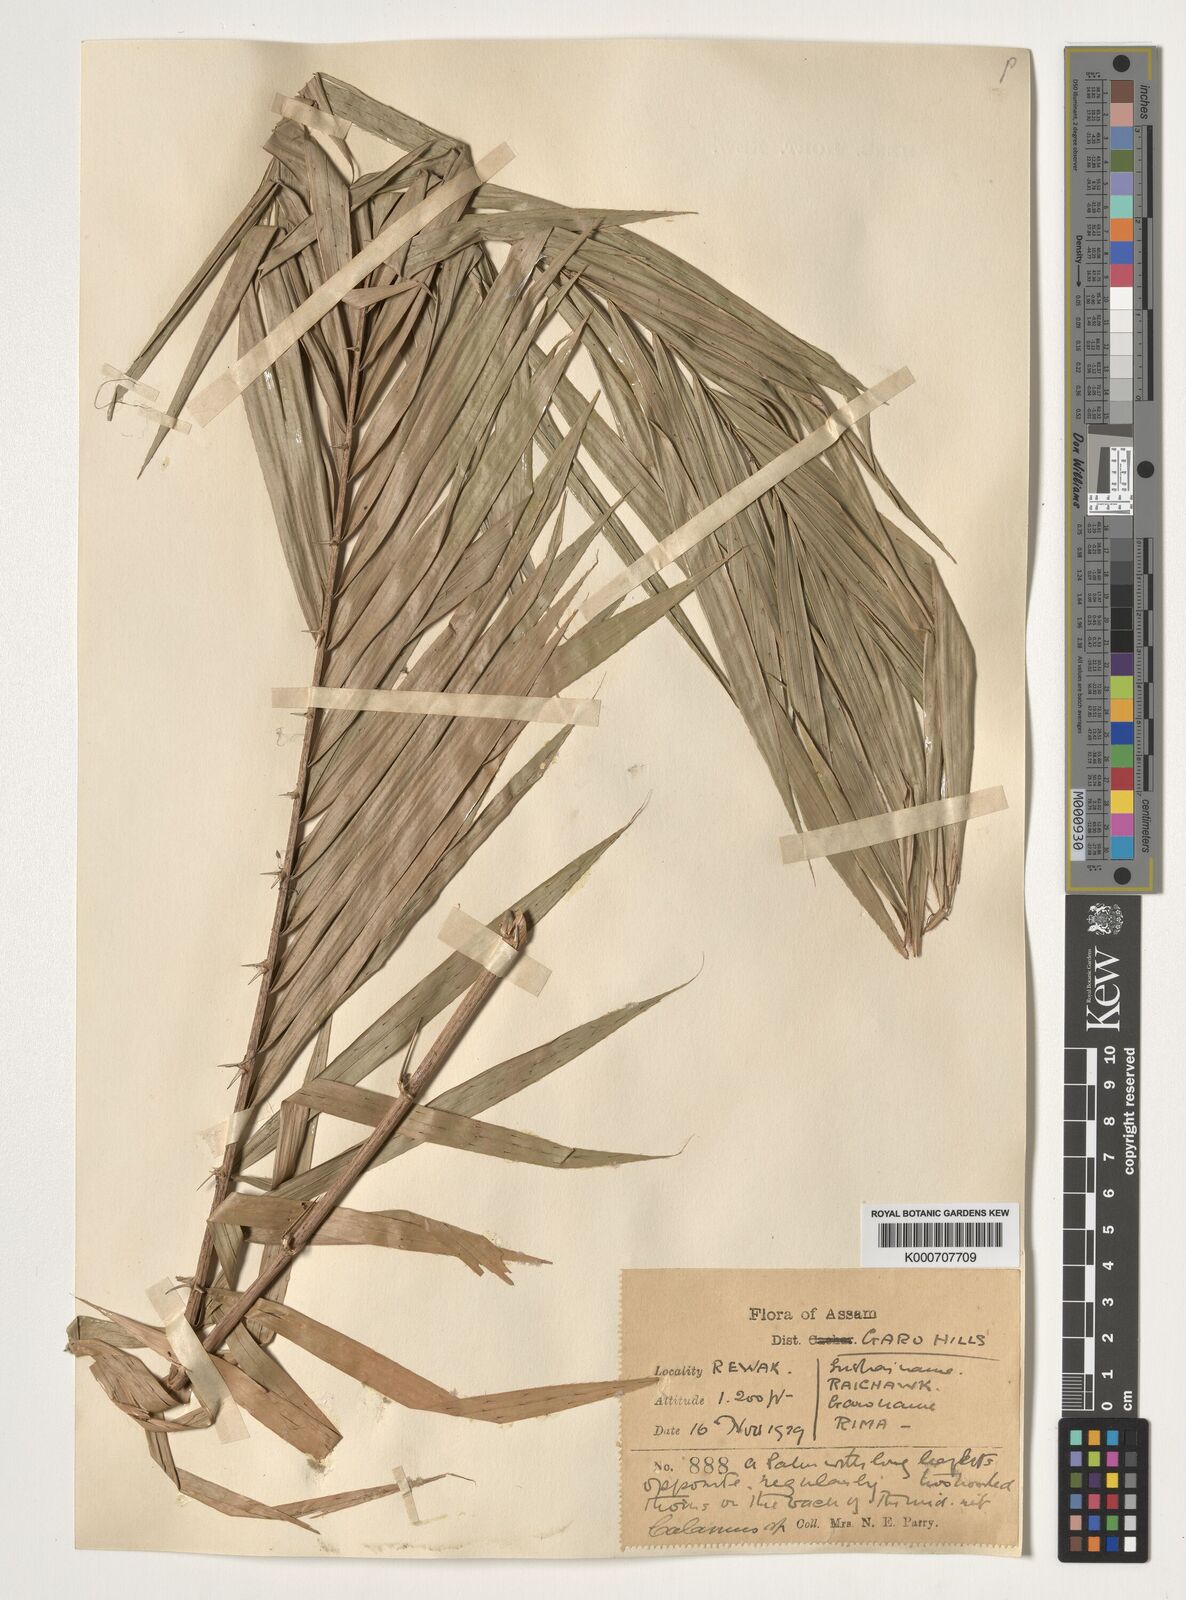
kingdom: Plantae
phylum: Tracheophyta
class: Liliopsida
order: Arecales
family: Arecaceae
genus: Calamus
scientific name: Calamus
